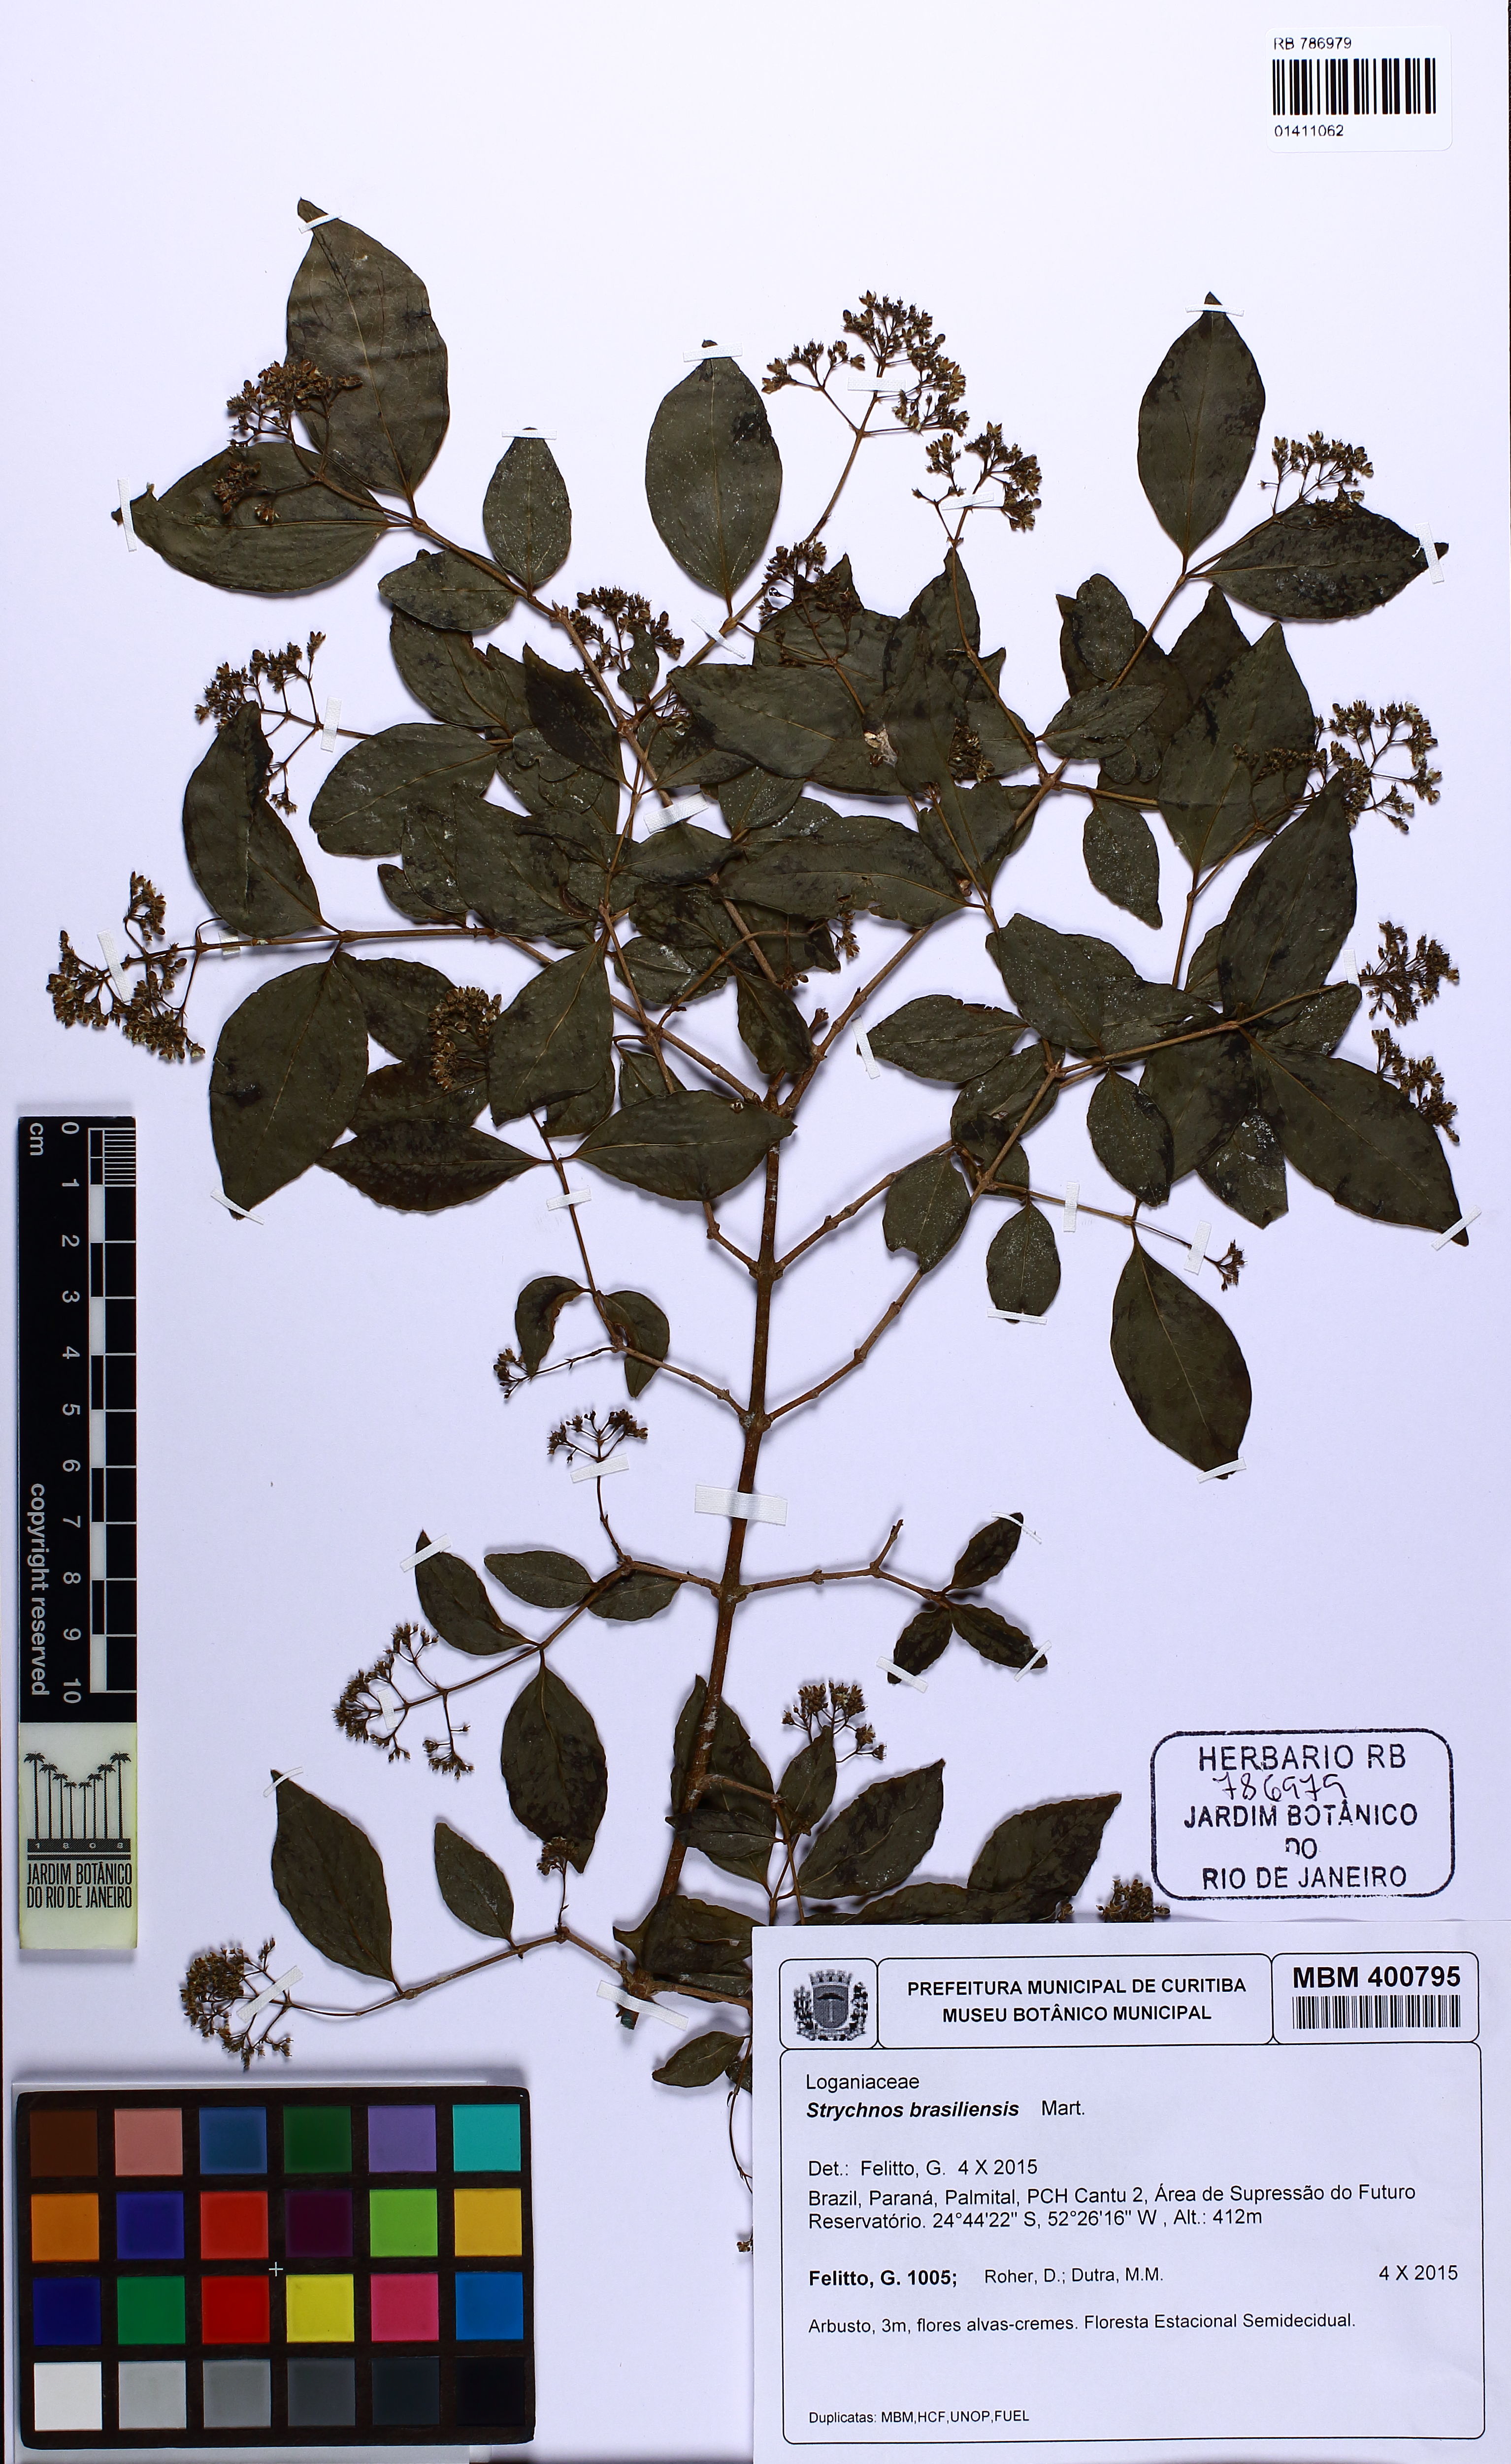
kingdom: Plantae
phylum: Tracheophyta
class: Magnoliopsida
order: Gentianales
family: Loganiaceae
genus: Strychnos
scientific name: Strychnos brasiliensis
